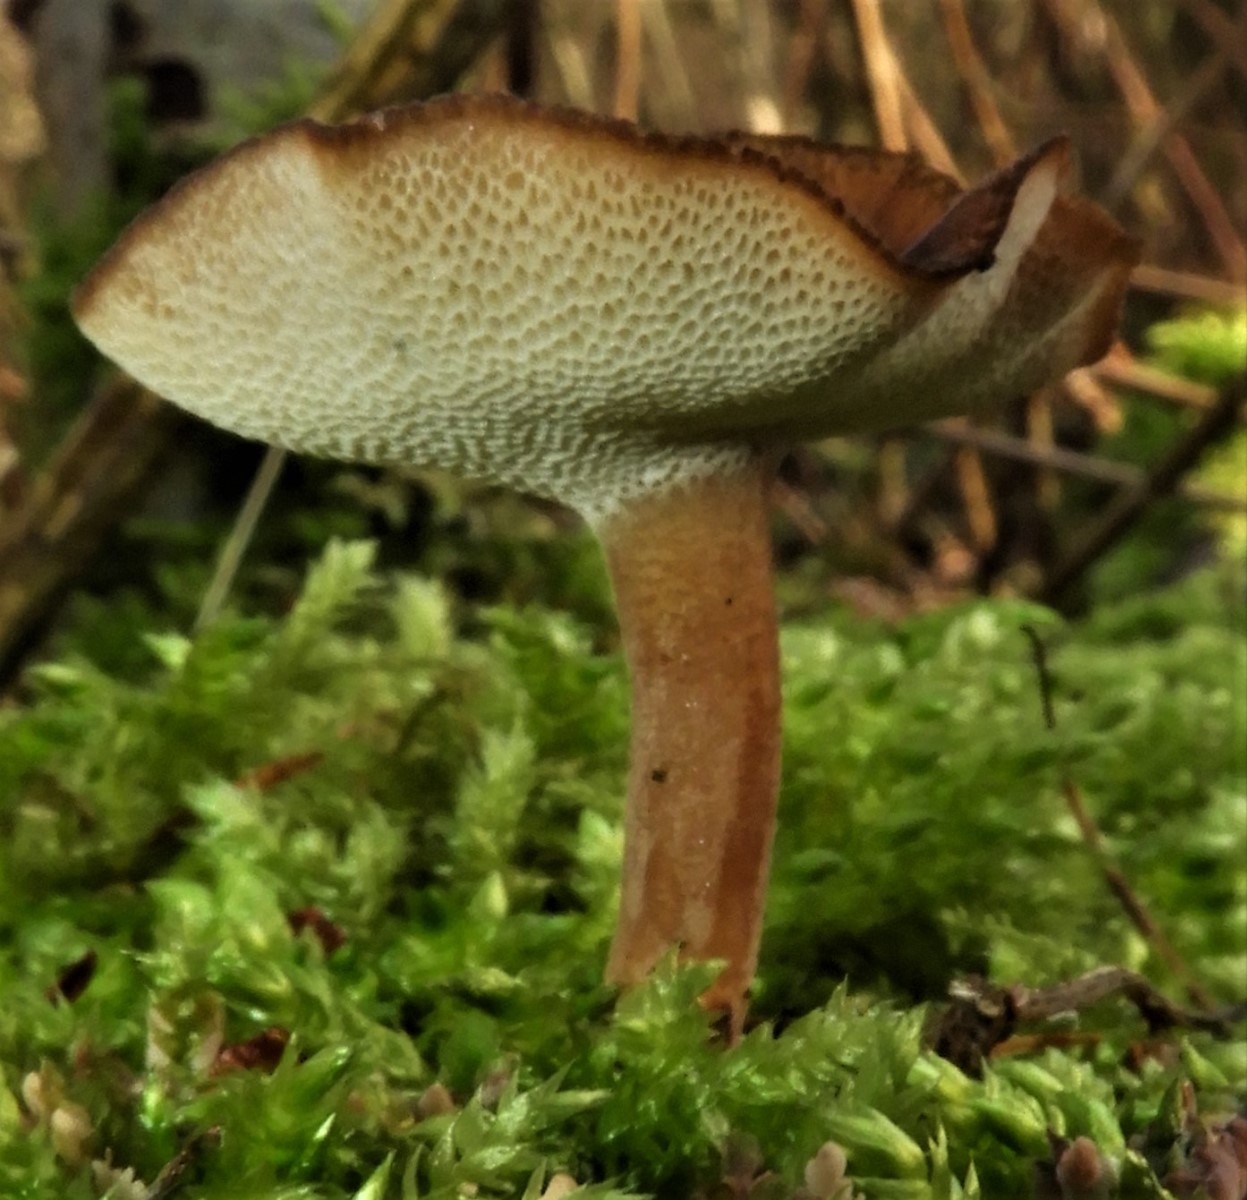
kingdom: Fungi
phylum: Basidiomycota
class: Agaricomycetes
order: Polyporales
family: Polyporaceae
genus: Lentinus
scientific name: Lentinus brumalis
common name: vinter-stilkporesvamp
